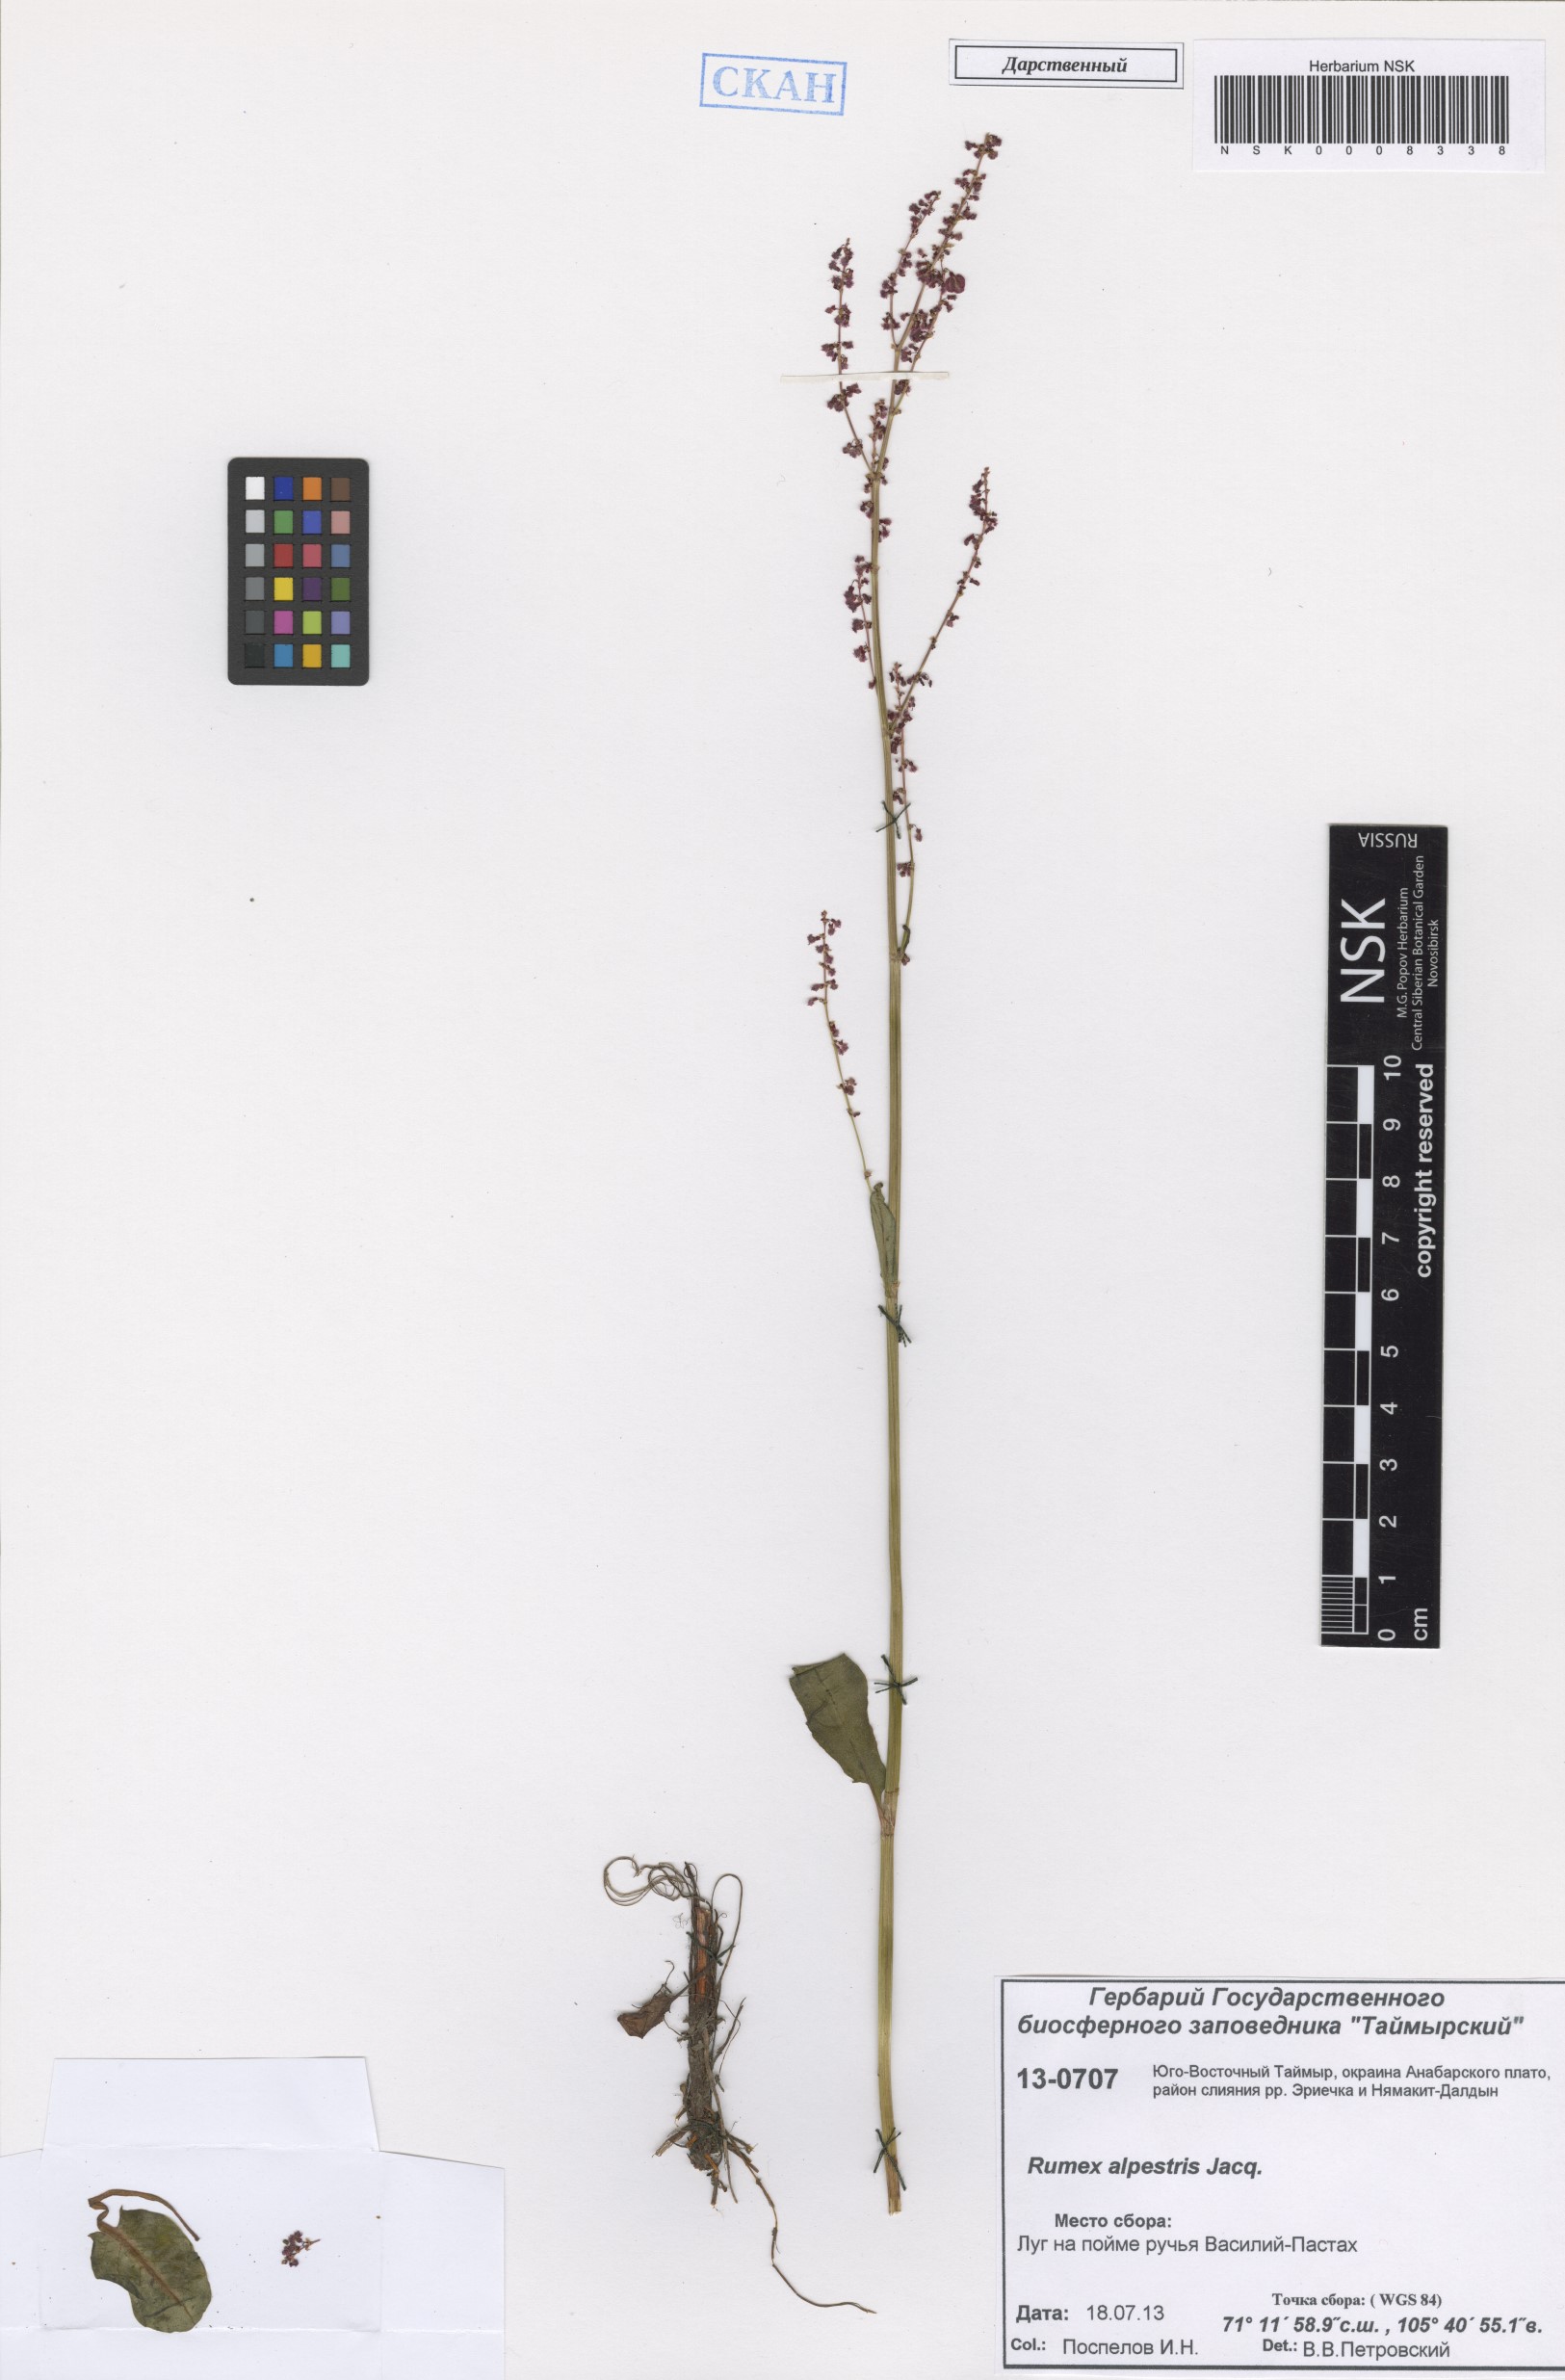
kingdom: Plantae
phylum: Tracheophyta
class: Magnoliopsida
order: Caryophyllales
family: Polygonaceae
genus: Rumex
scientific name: Rumex scutatus
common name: French sorrel
